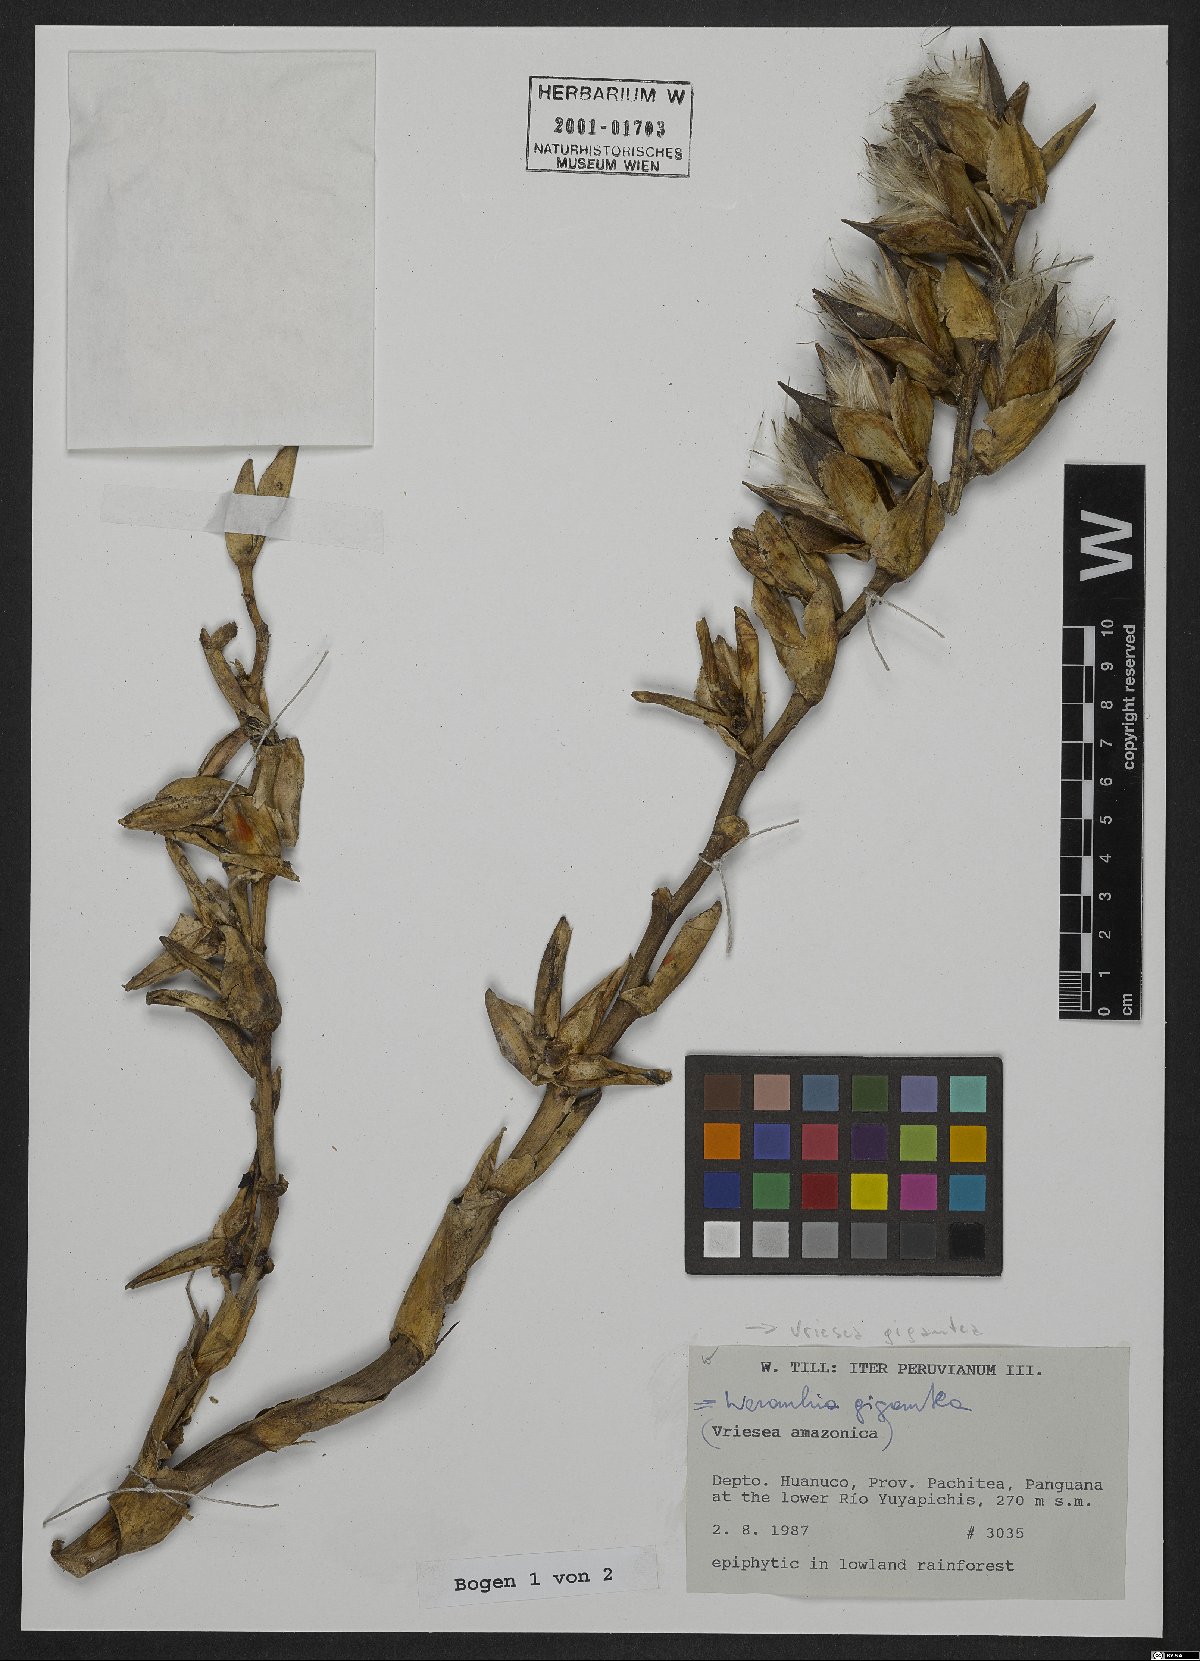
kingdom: Plantae
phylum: Tracheophyta
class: Liliopsida
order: Poales
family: Bromeliaceae
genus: Vriesea
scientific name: Vriesea gigantea
